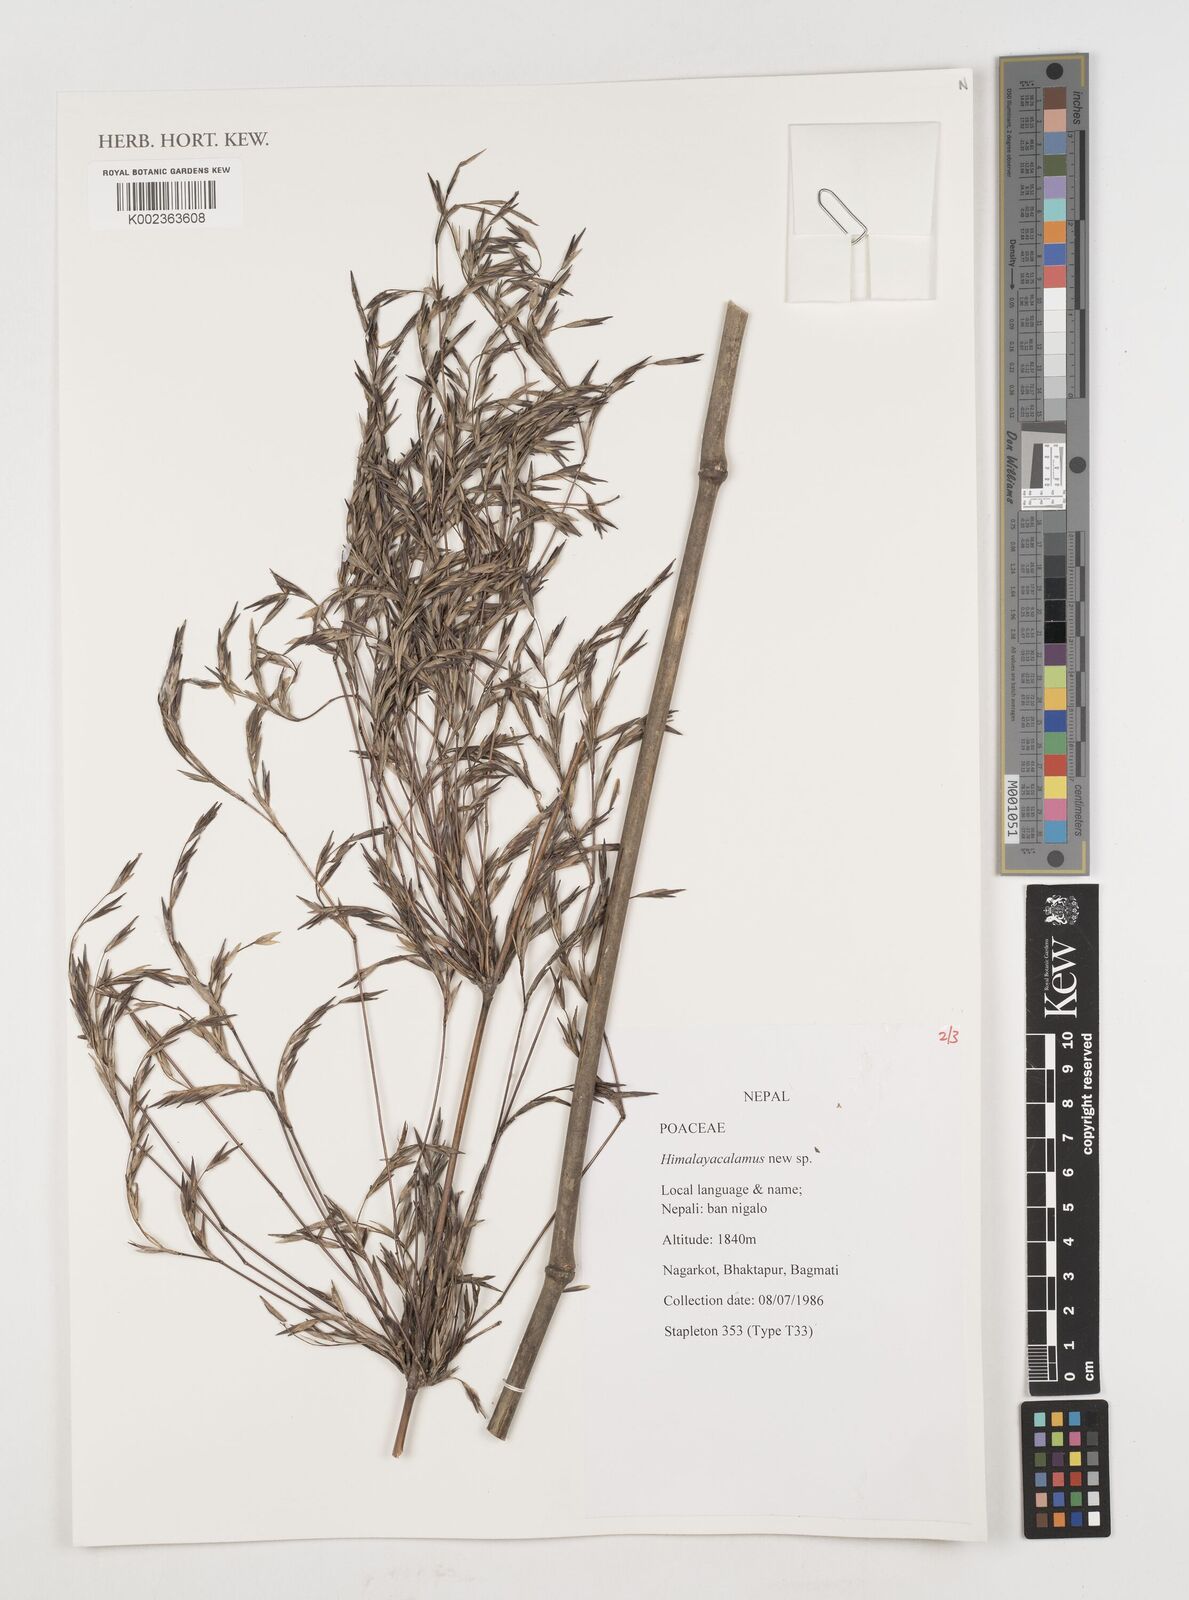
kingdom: Plantae
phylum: Tracheophyta
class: Liliopsida
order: Poales
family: Poaceae
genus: Himalayacalamus
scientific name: Himalayacalamus
